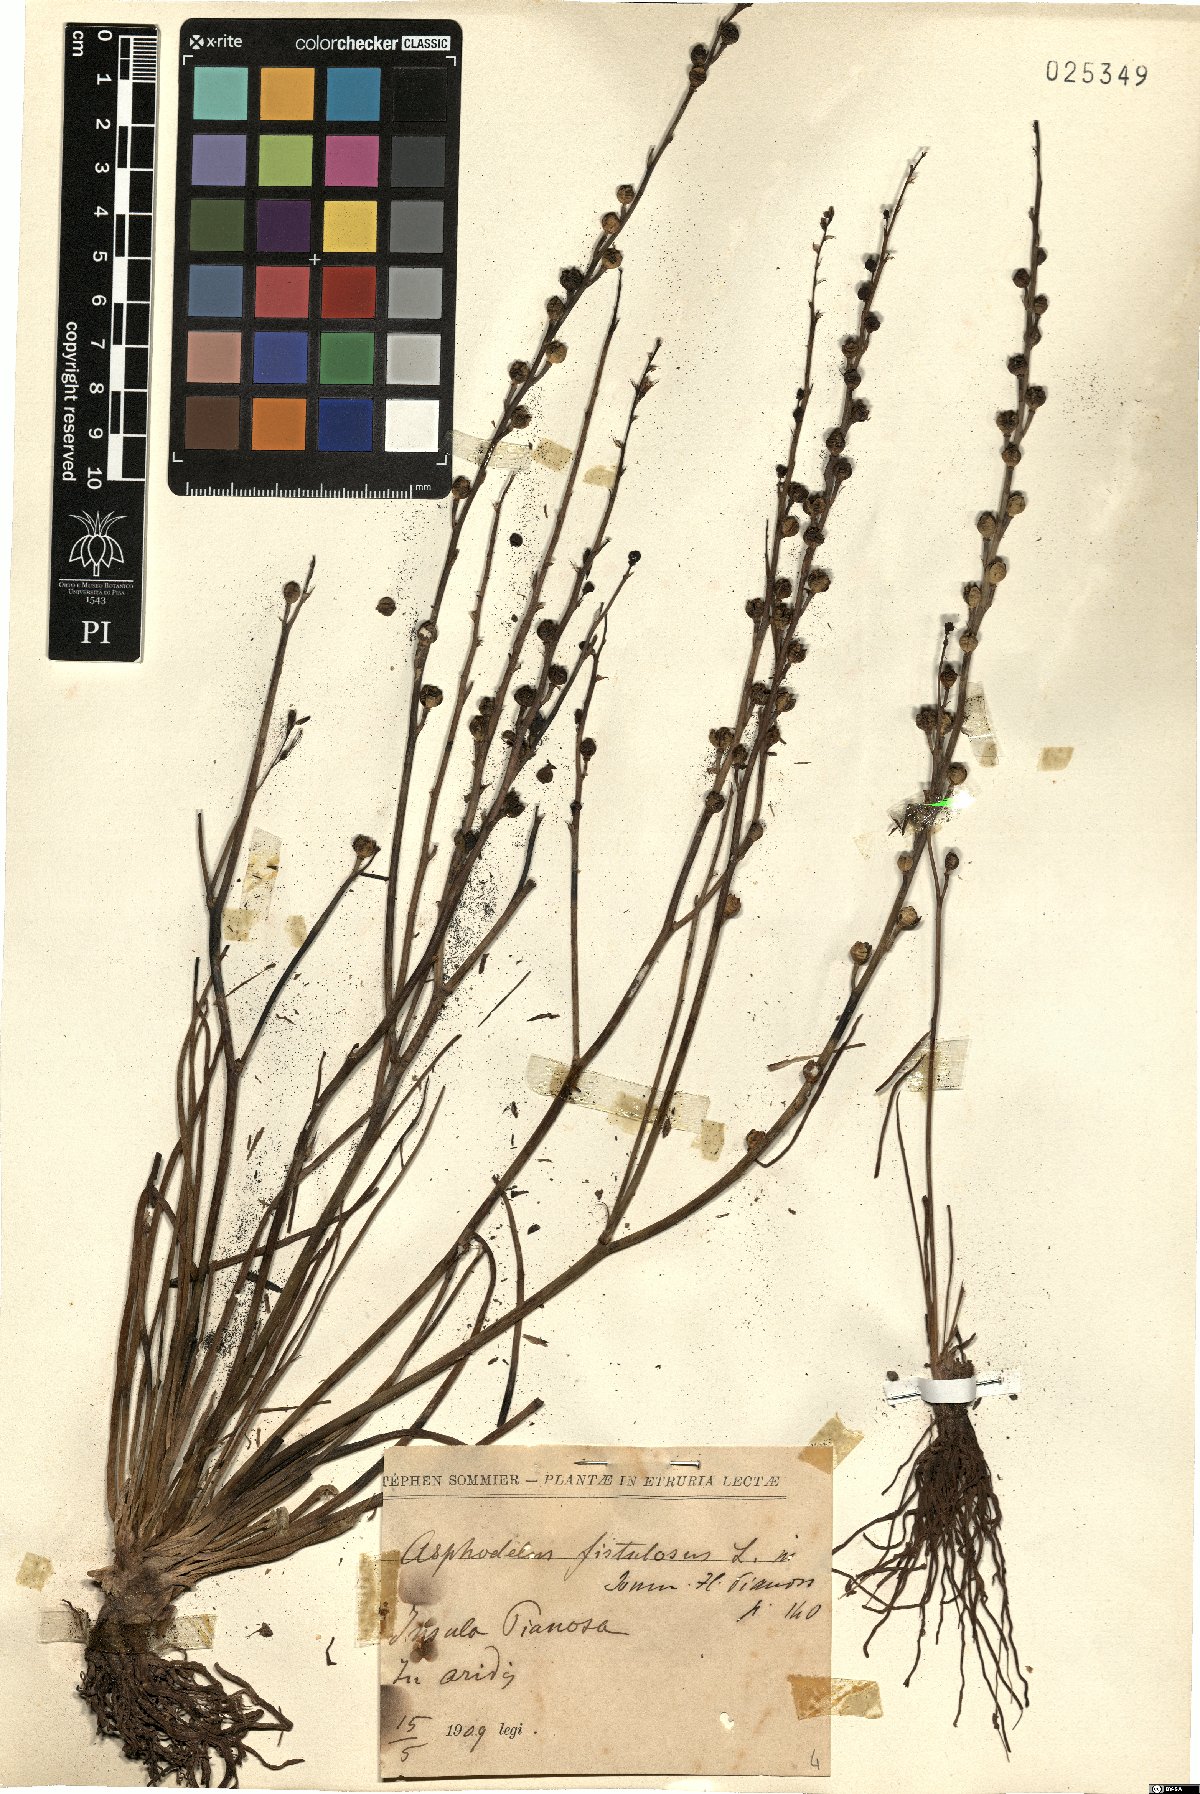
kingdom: Plantae
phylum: Tracheophyta
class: Liliopsida
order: Asparagales
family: Asphodelaceae
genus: Asphodelus
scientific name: Asphodelus fistulosus
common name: Onionweed
